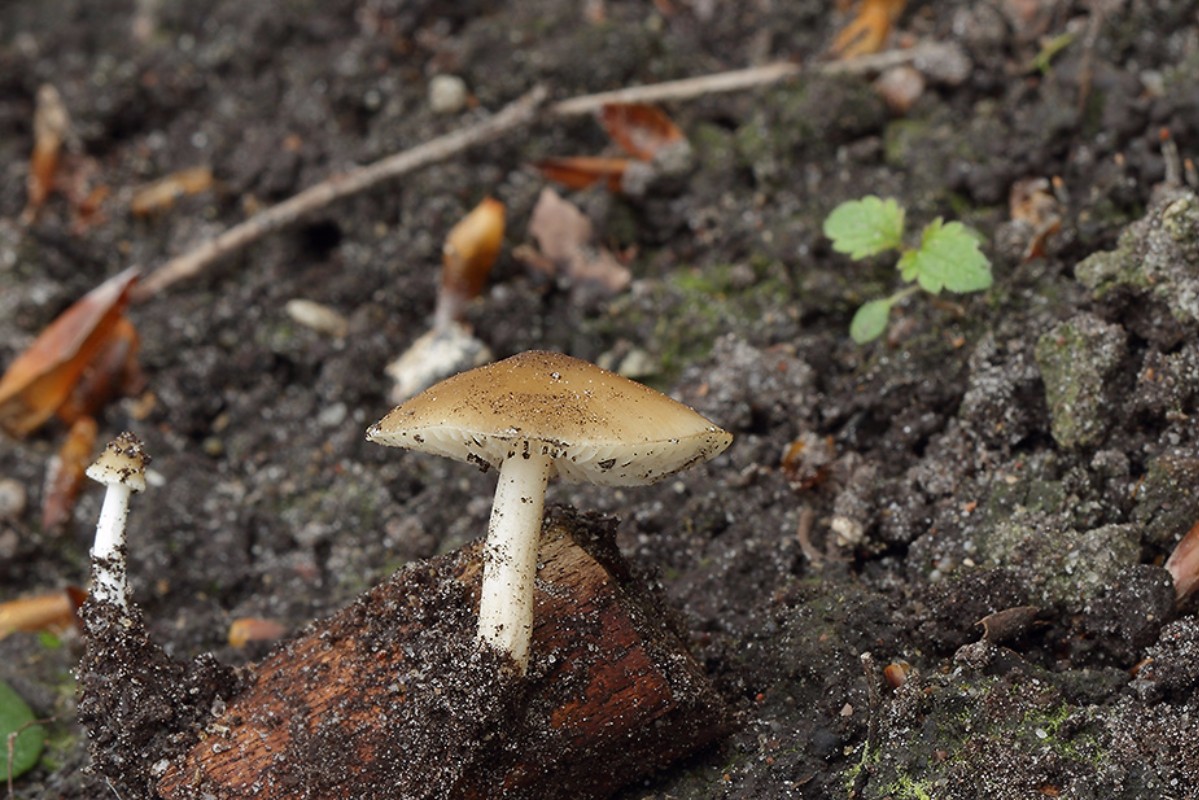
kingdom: Fungi
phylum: Basidiomycota
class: Agaricomycetes
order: Agaricales
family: Porotheleaceae
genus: Hydropodia
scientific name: Hydropodia subalpina
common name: vår-fnugfod
